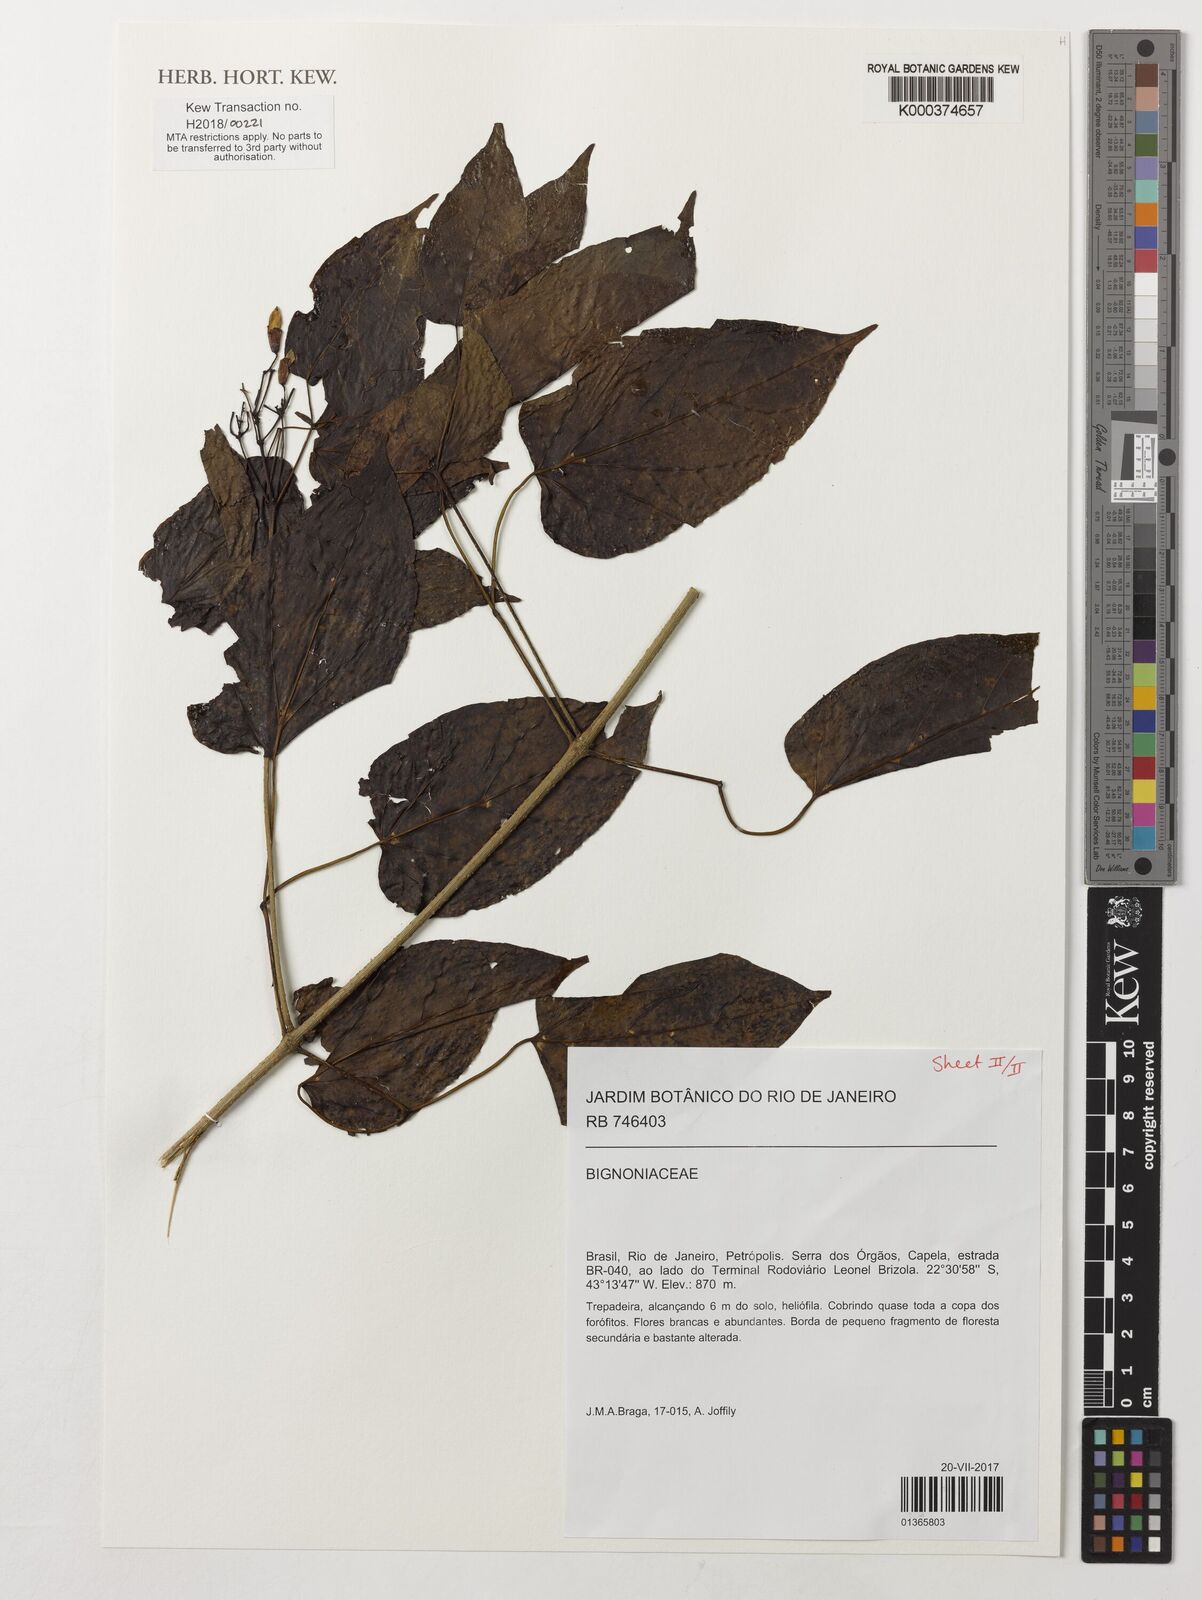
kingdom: Plantae
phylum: Tracheophyta
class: Magnoliopsida
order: Lamiales
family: Bignoniaceae
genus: Lundia
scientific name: Lundia damazioi
